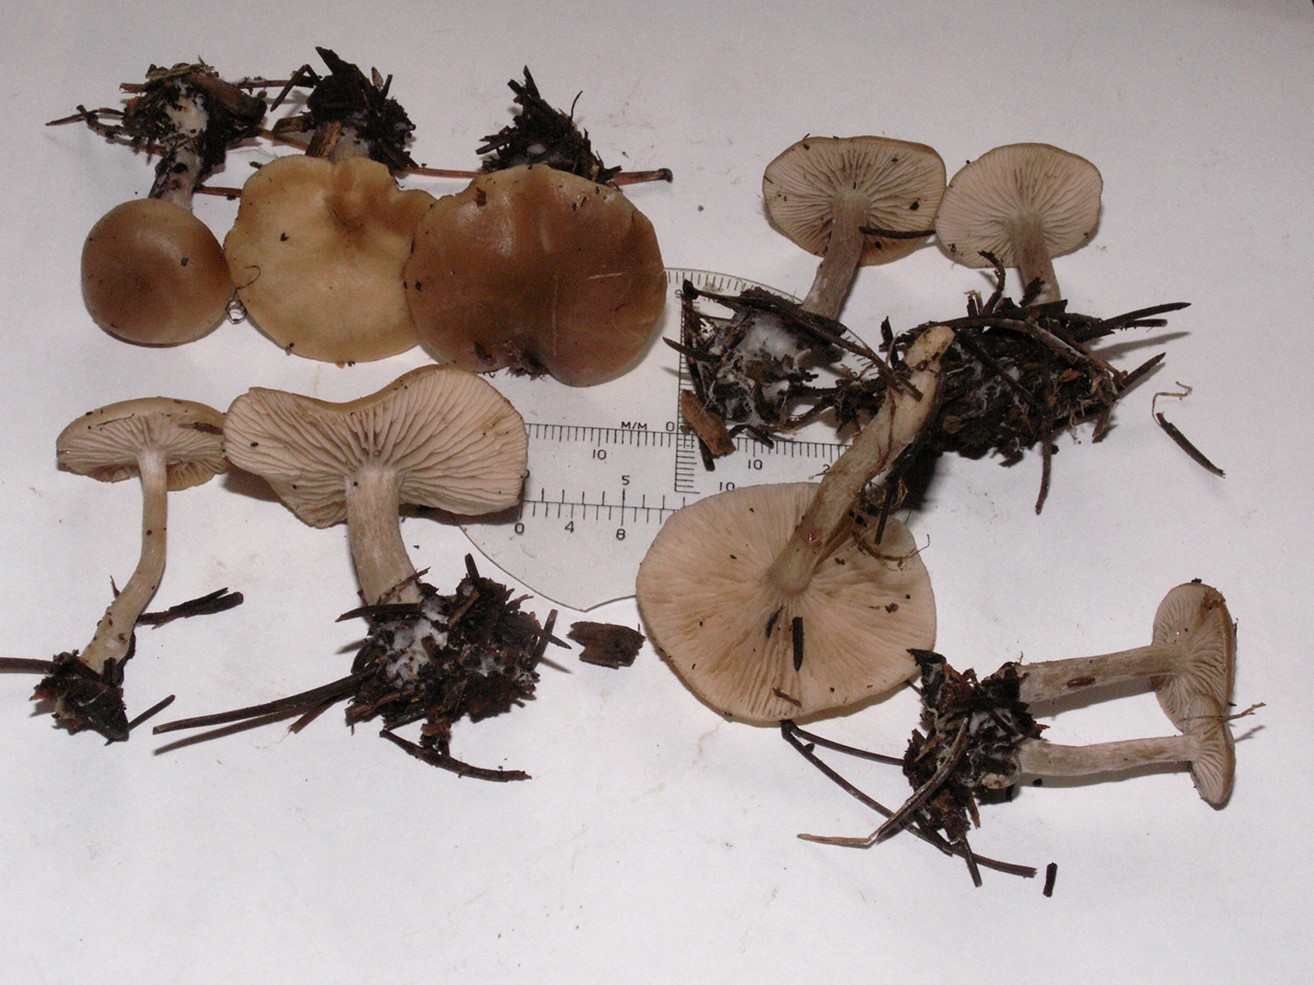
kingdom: Fungi
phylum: Basidiomycota
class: Agaricomycetes
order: Agaricales
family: Tricholomataceae
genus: Clitocybe
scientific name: Clitocybe fragrans
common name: vellugtende tragthat
